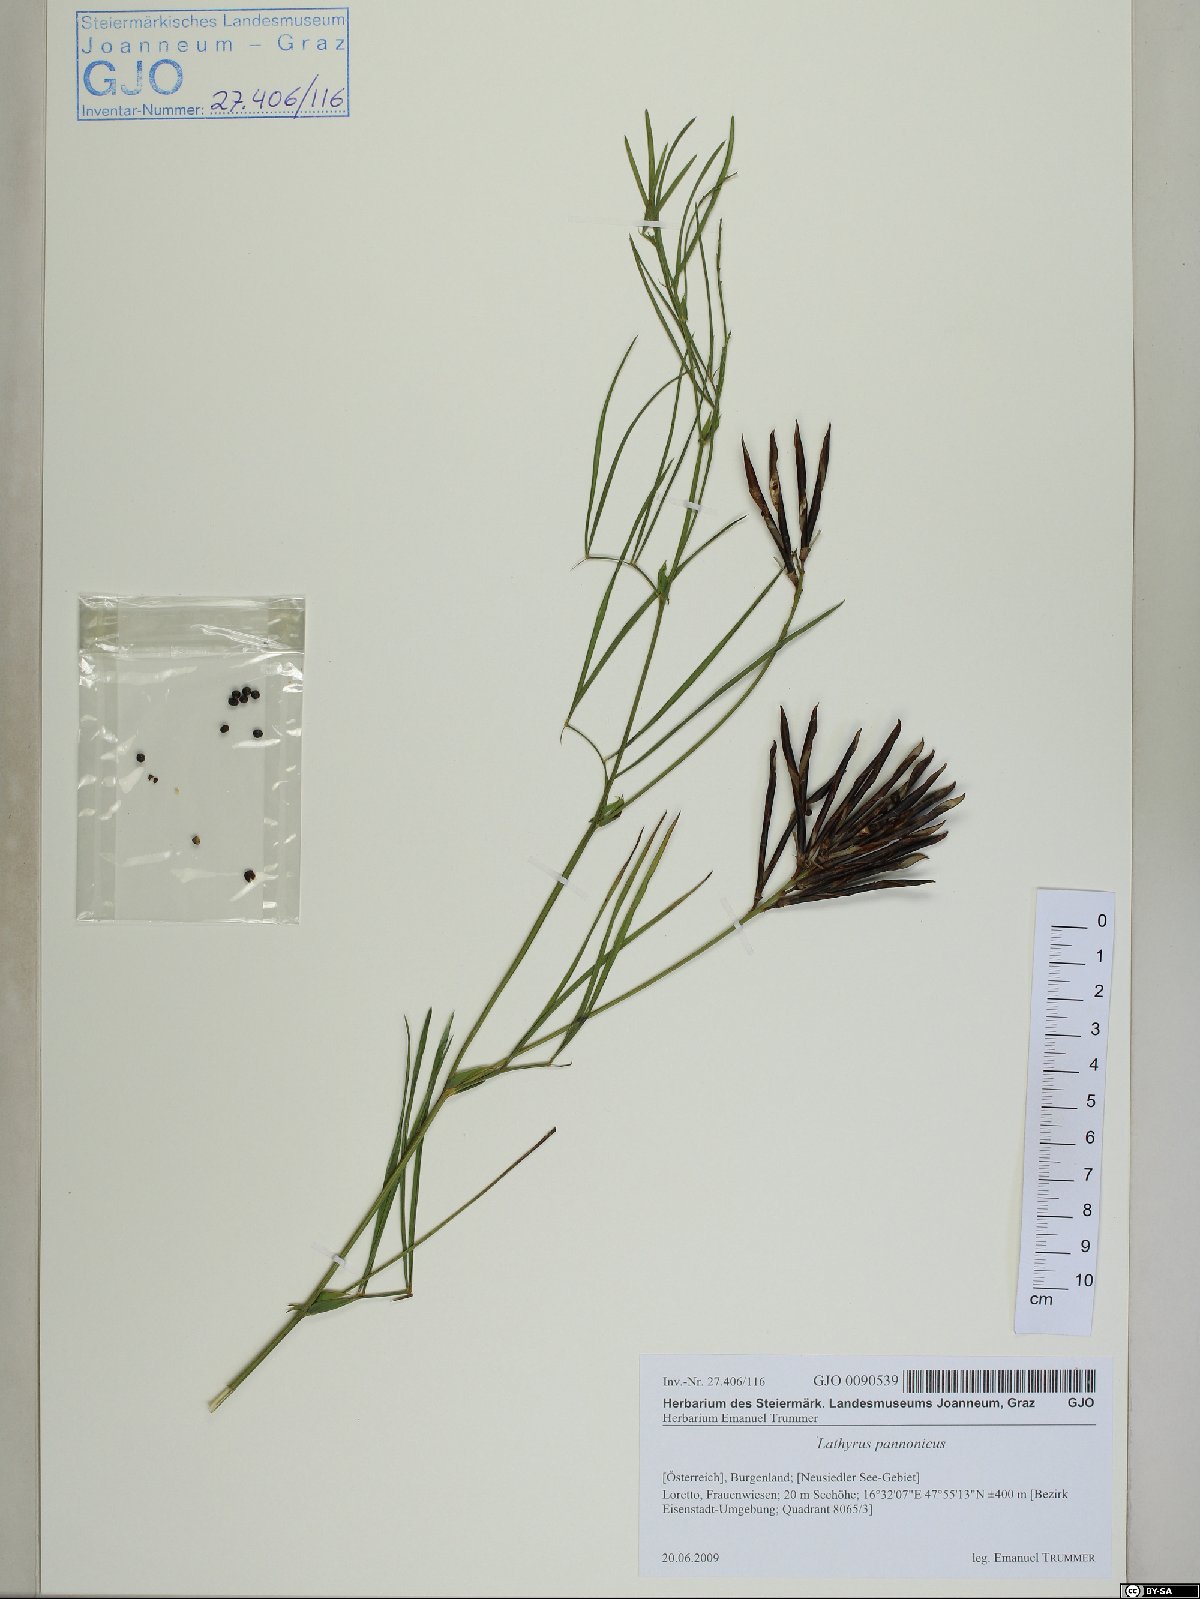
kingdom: Plantae
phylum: Tracheophyta
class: Magnoliopsida
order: Fabales
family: Fabaceae
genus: Lathyrus
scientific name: Lathyrus pannonicus
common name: Pea
